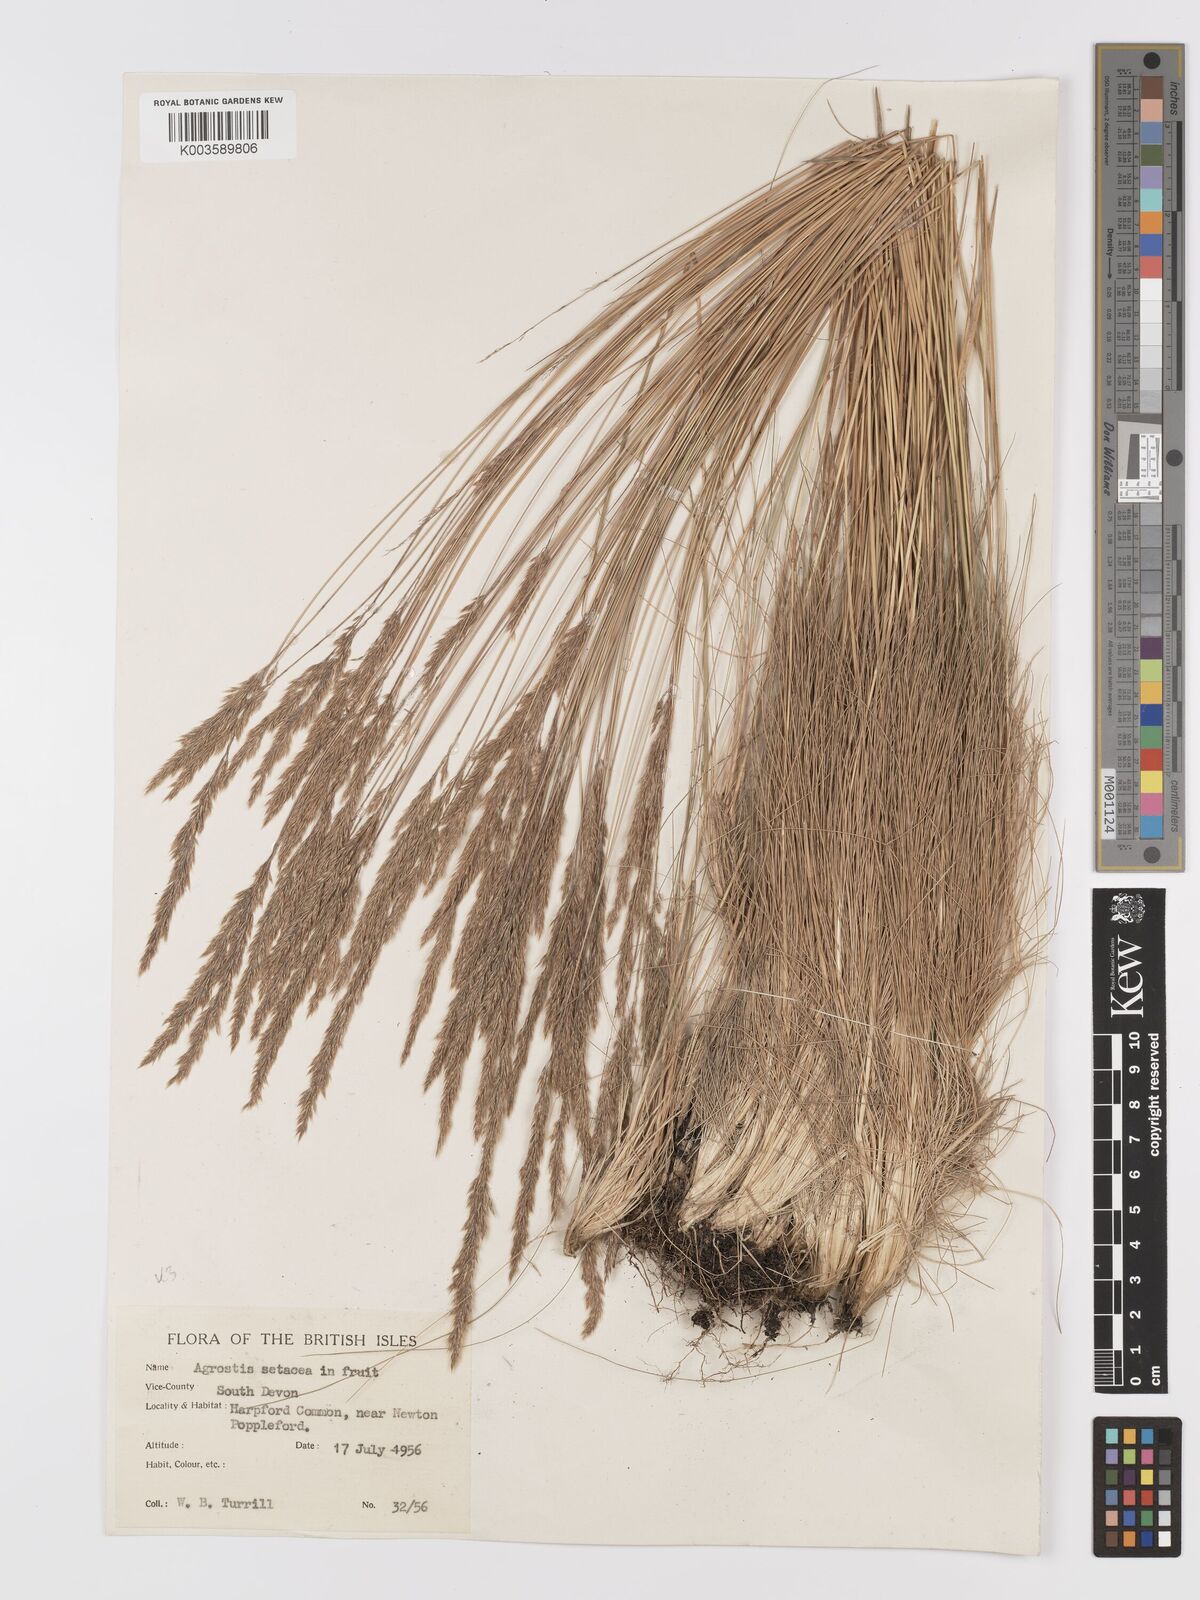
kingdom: Plantae
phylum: Tracheophyta
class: Liliopsida
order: Poales
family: Poaceae
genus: Alpagrostis
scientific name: Alpagrostis setacea
